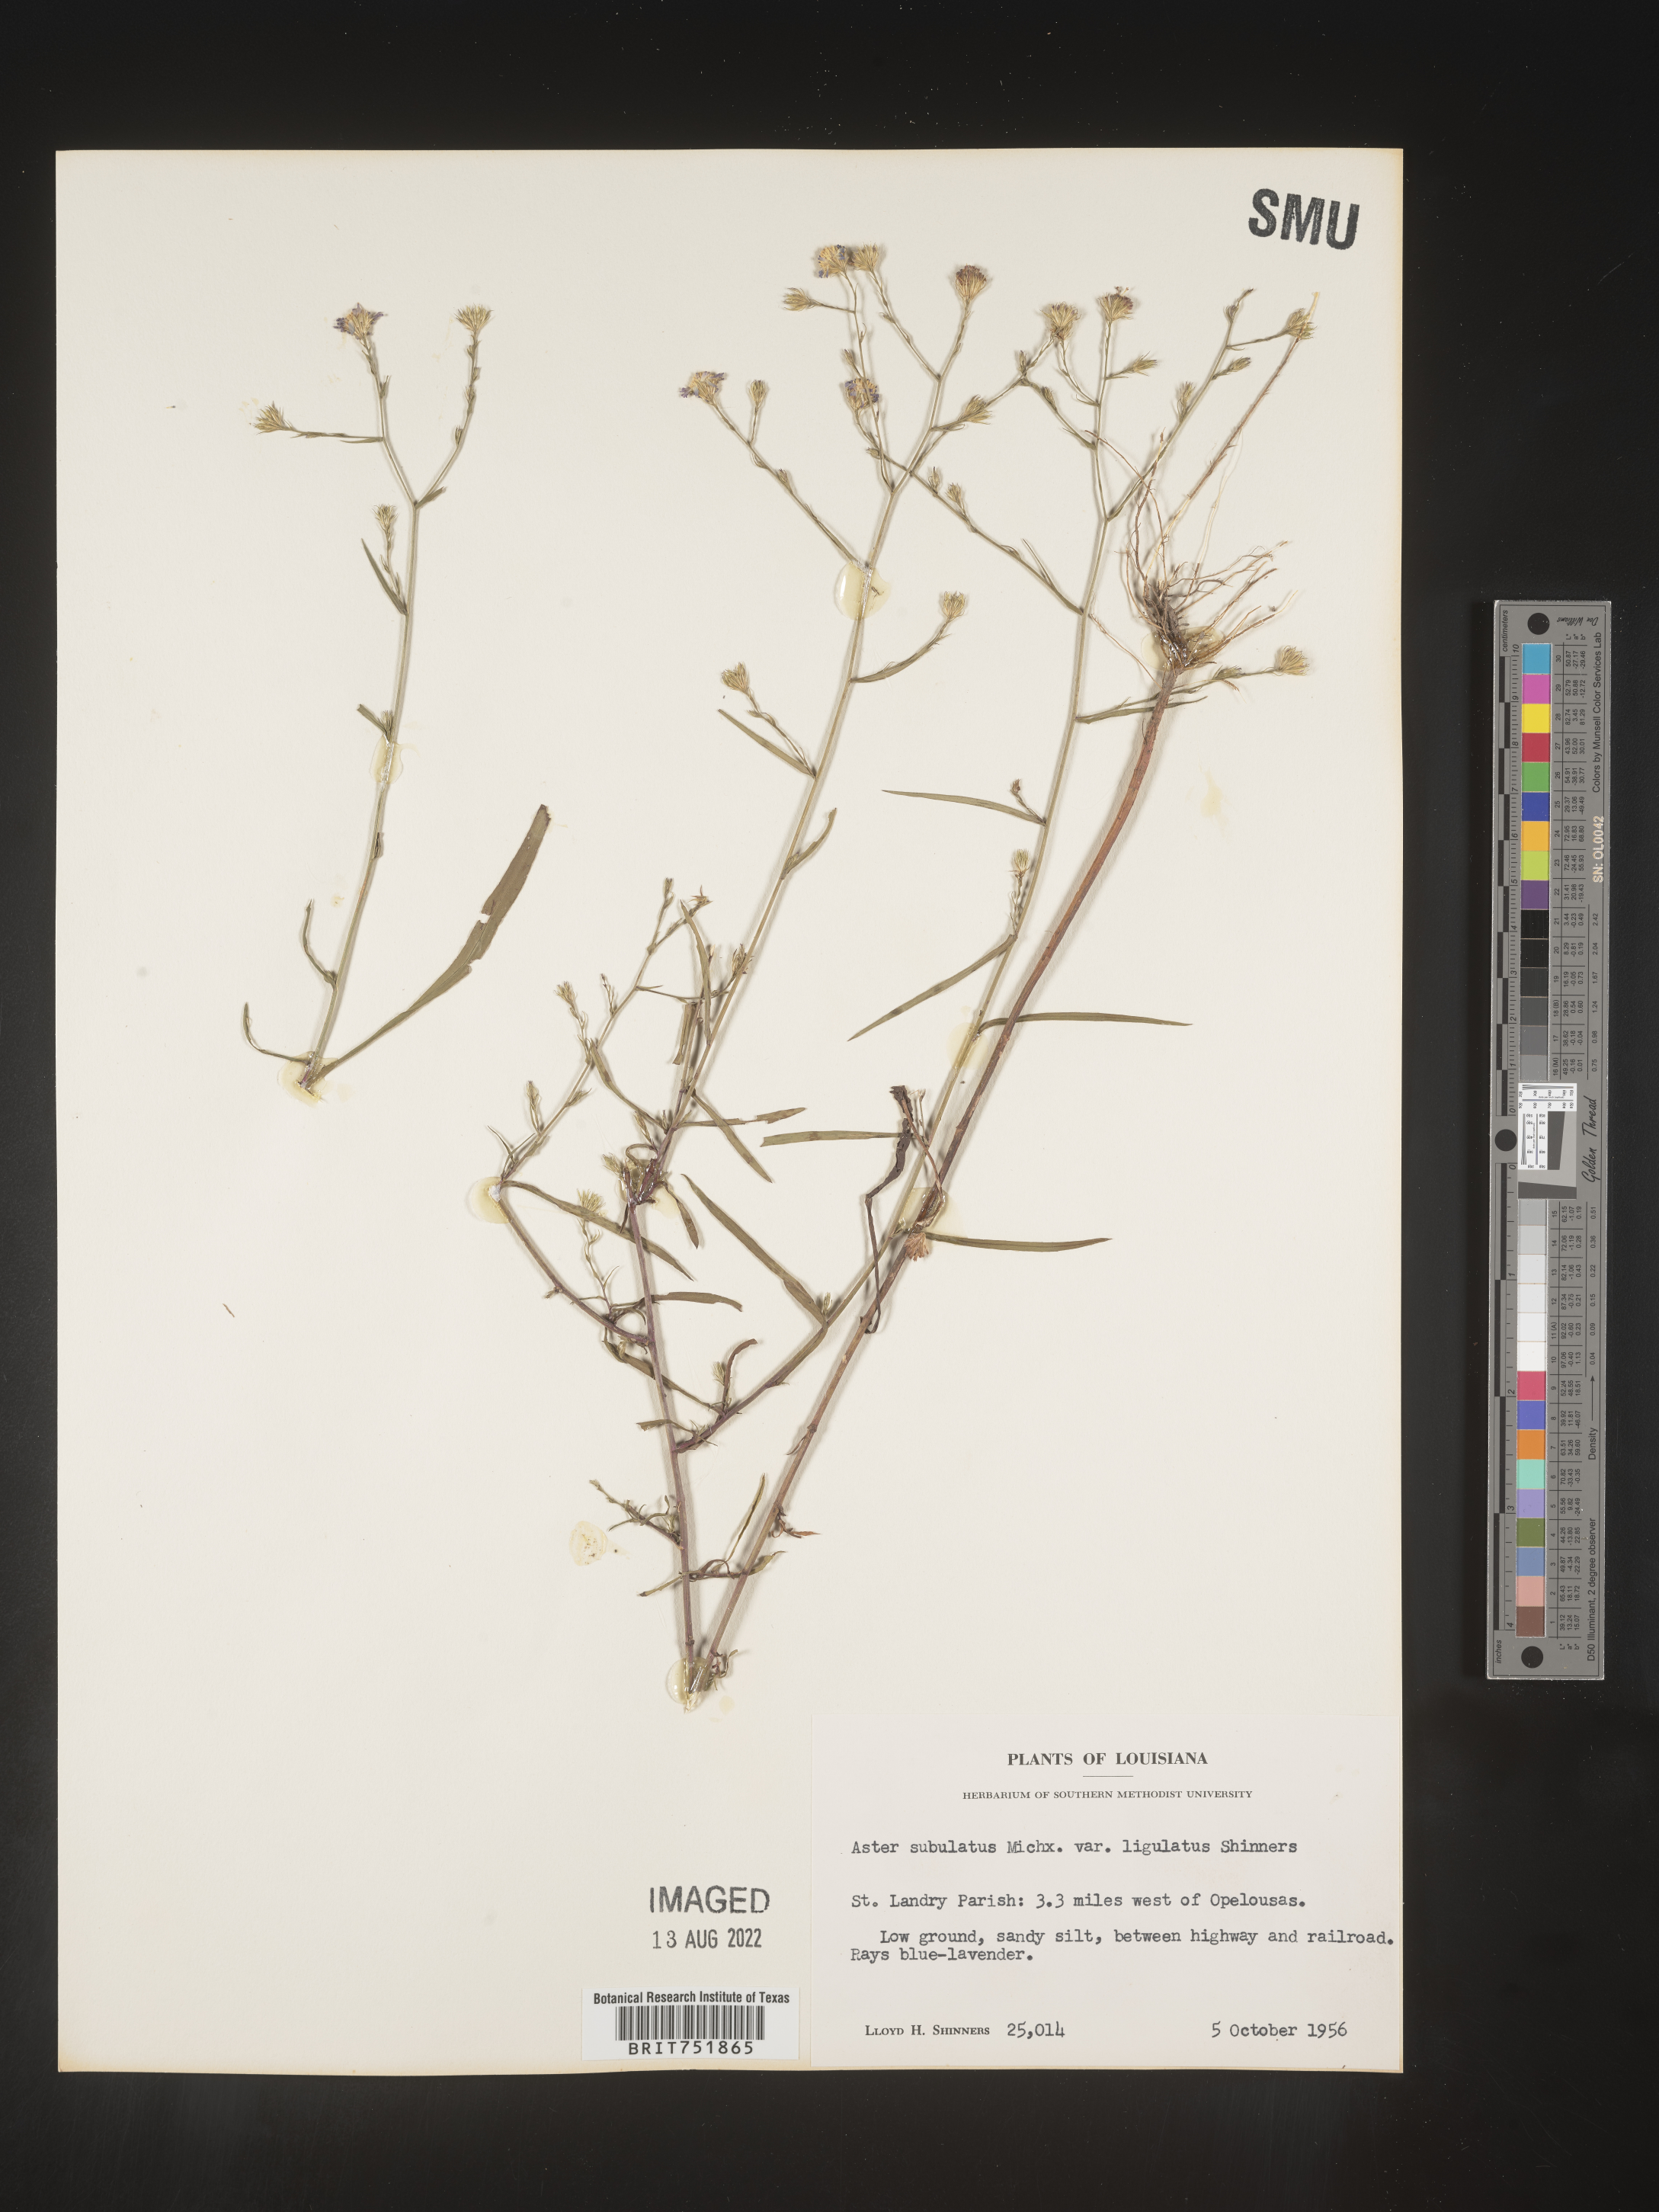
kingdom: Plantae
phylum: Tracheophyta
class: Magnoliopsida
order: Asterales
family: Asteraceae
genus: Symphyotrichum
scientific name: Symphyotrichum divaricatum
